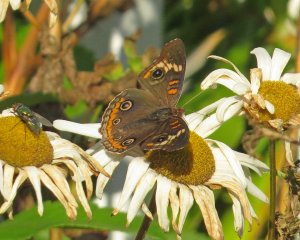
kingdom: Animalia
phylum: Arthropoda
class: Insecta
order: Lepidoptera
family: Nymphalidae
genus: Junonia
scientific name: Junonia coenia
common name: Common Buckeye
